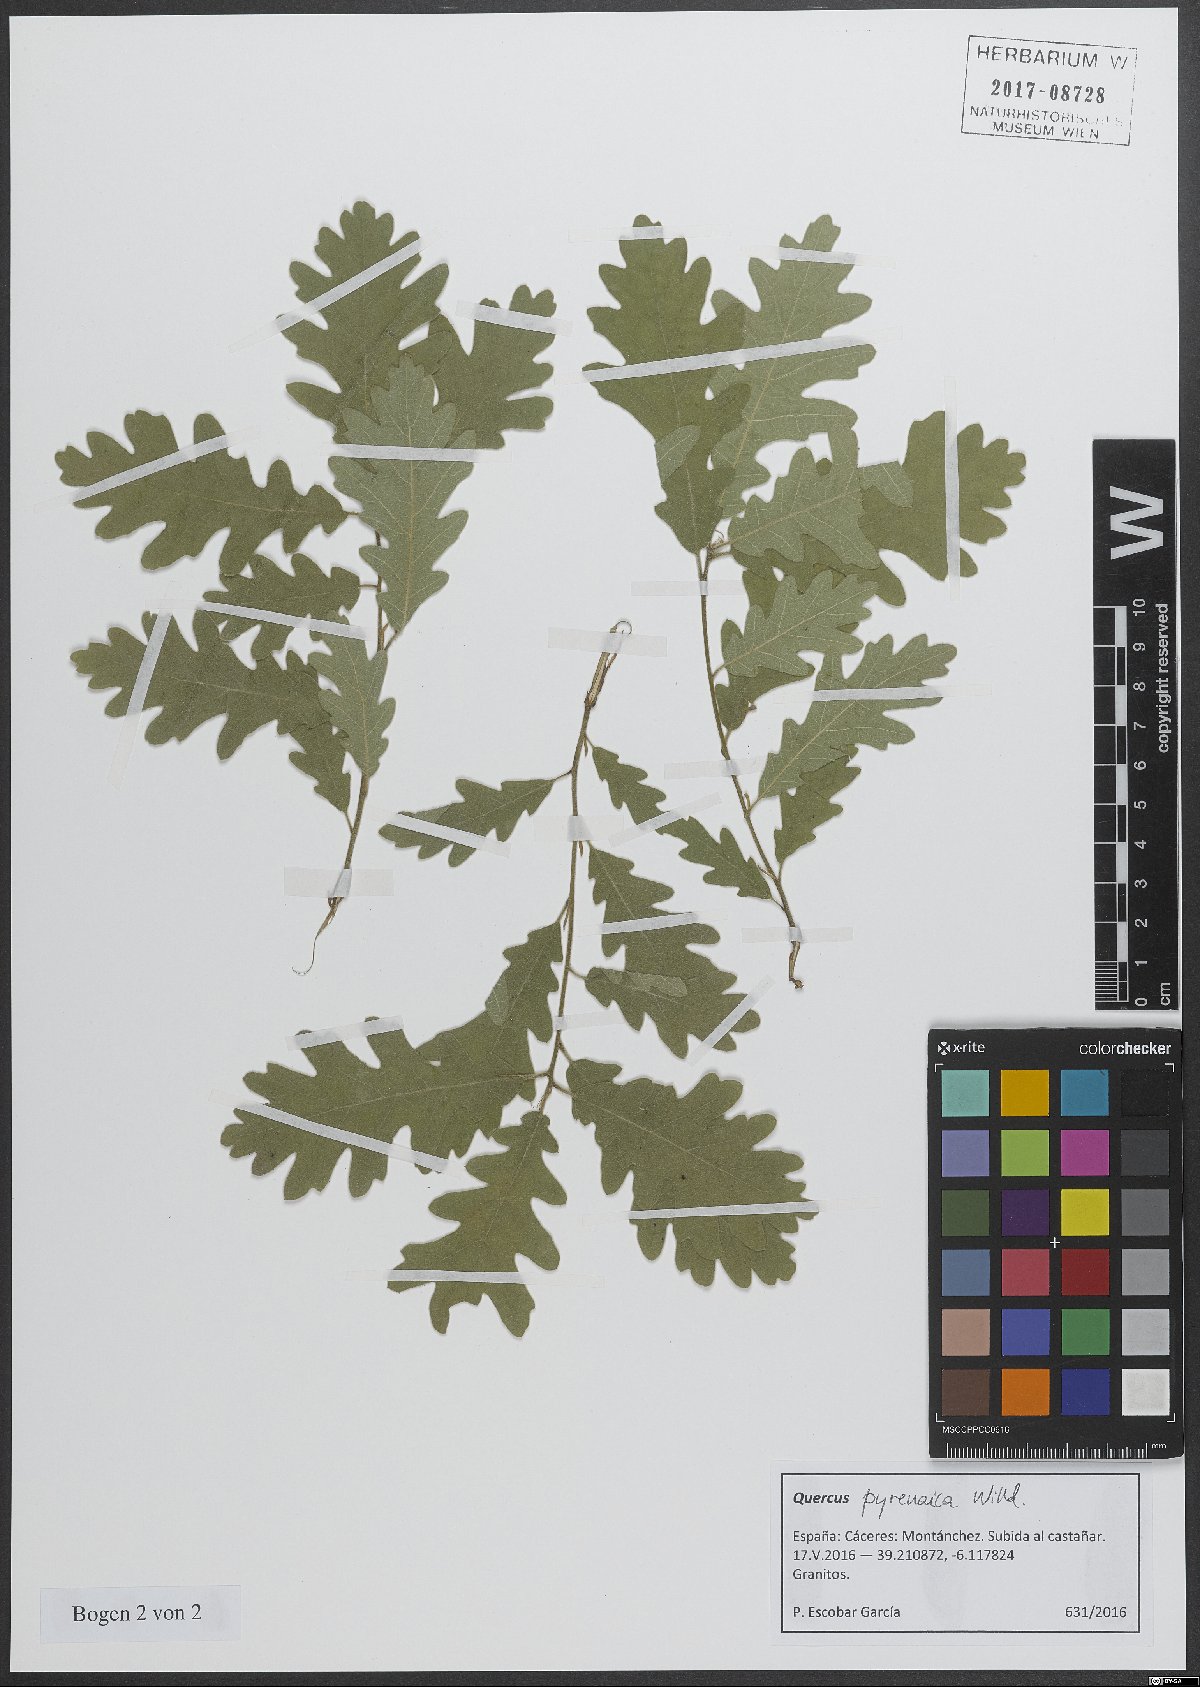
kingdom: Plantae
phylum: Tracheophyta
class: Magnoliopsida
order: Fagales
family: Fagaceae
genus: Quercus
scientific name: Quercus pyrenaica
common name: Pyrenean oak
